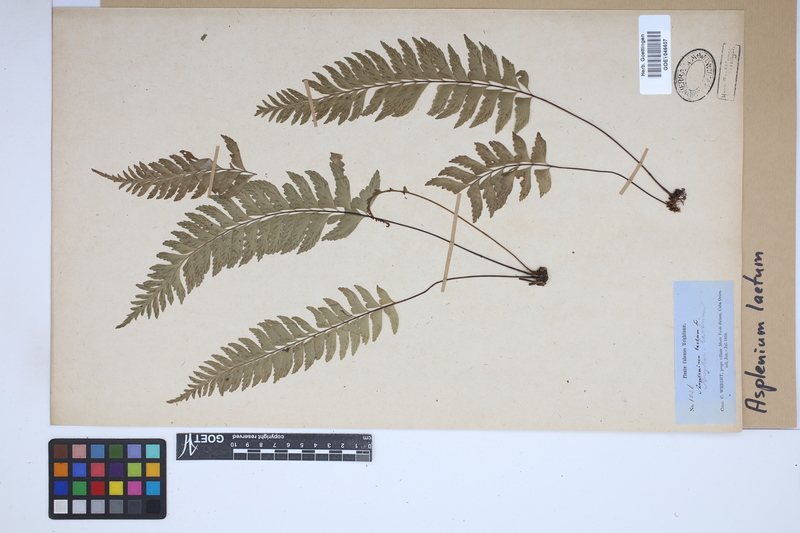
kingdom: Plantae
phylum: Tracheophyta
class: Polypodiopsida
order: Polypodiales
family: Aspleniaceae
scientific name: Aspleniaceae
